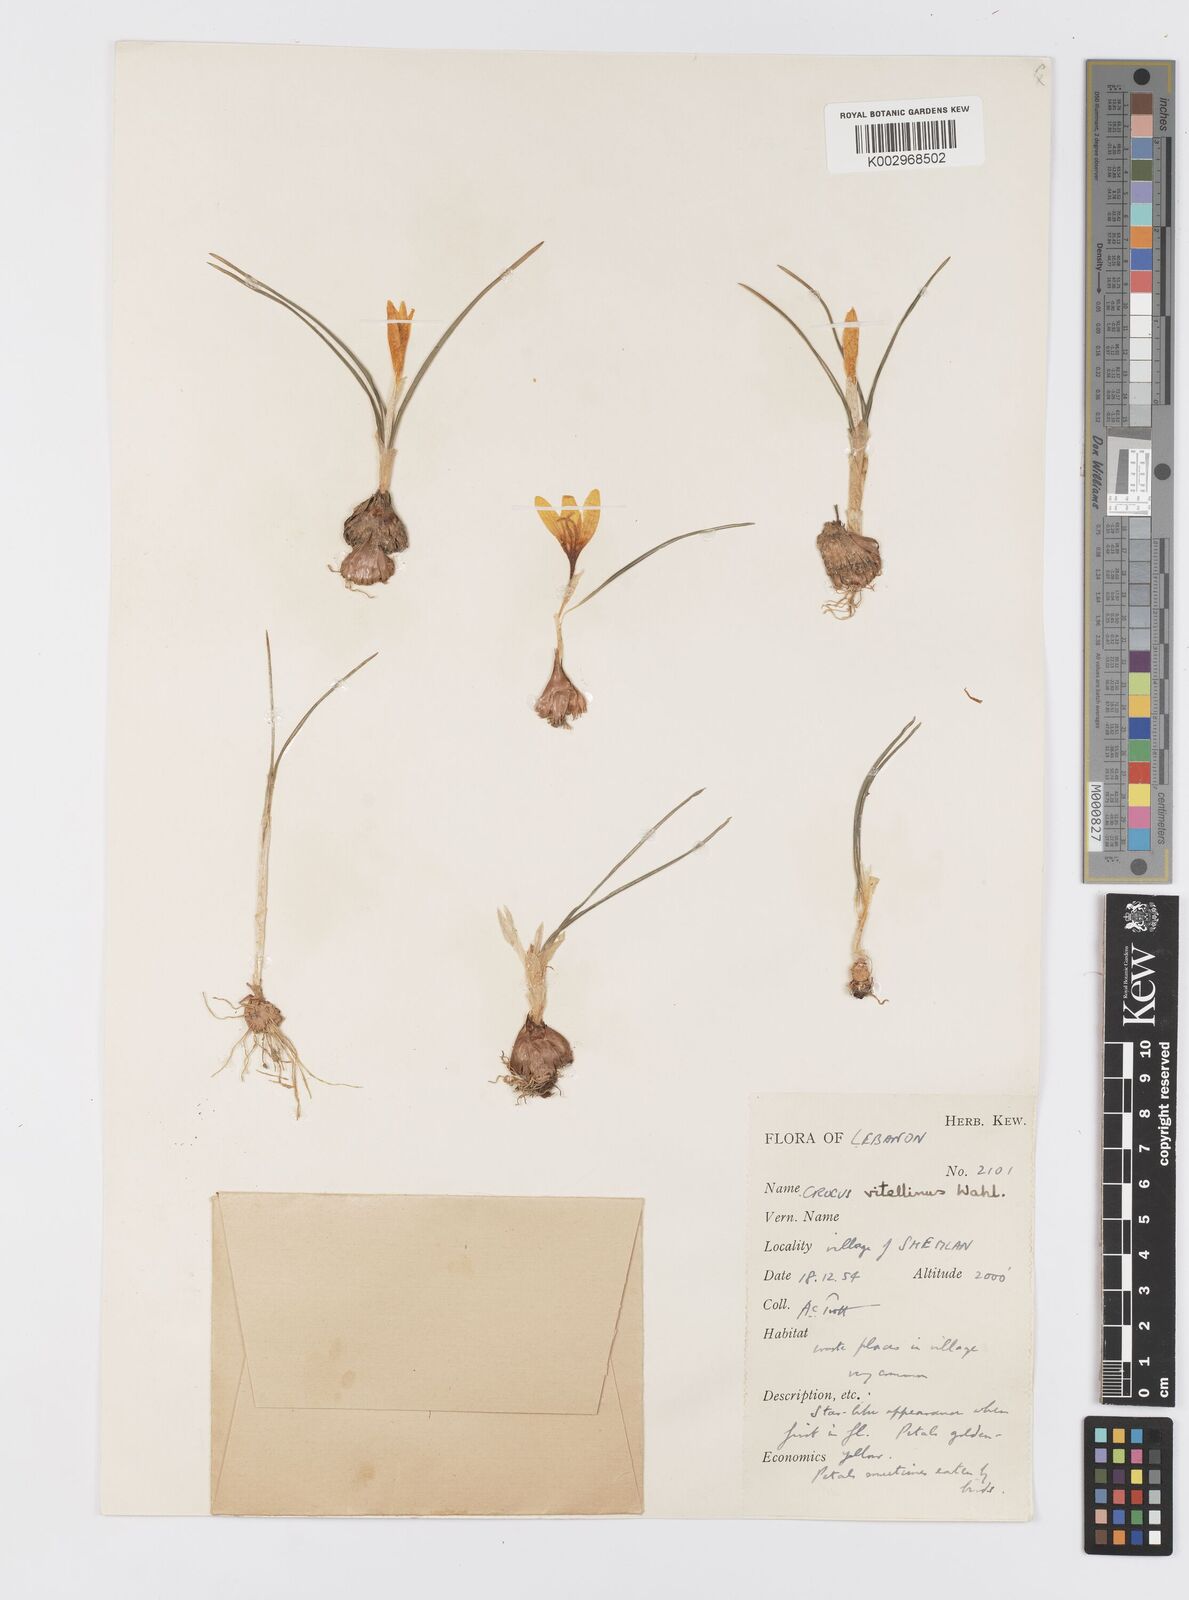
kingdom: Plantae
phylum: Tracheophyta
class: Liliopsida
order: Asparagales
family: Iridaceae
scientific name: Iridaceae
